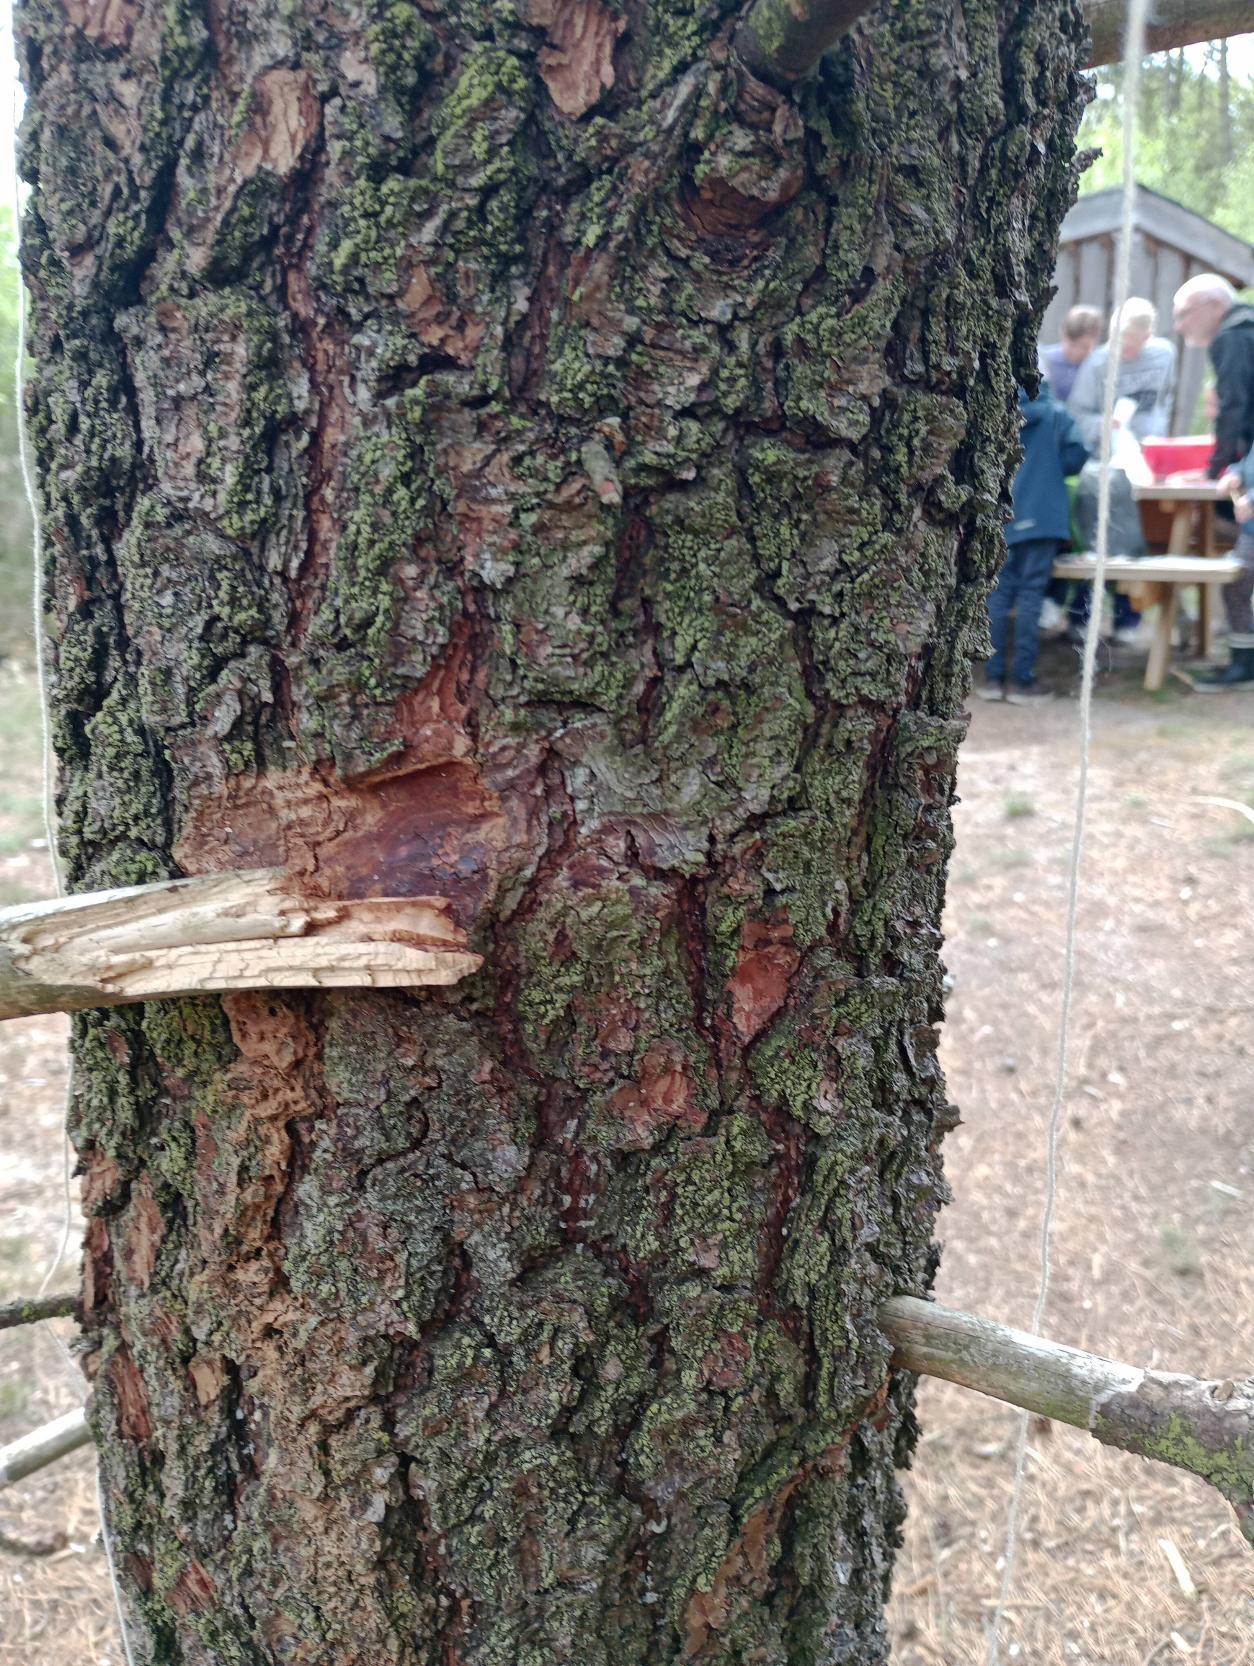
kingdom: Fungi
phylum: Ascomycota
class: Lecanoromycetes
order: Lecanorales
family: Stereocaulaceae
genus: Lepraria
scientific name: Lepraria incana
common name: Almindelig støvlav
